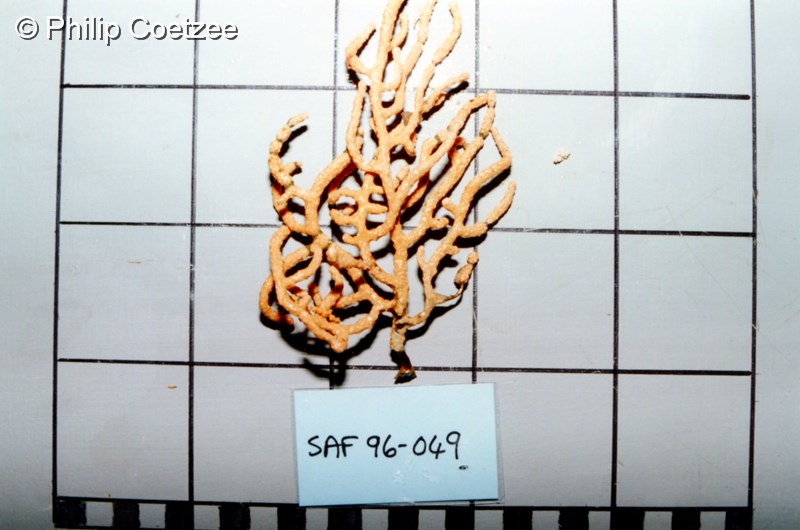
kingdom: Animalia
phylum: Cnidaria
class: Anthozoa
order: Malacalcyonacea
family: Eunicellidae
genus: Eunicella
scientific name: Eunicella microthela
